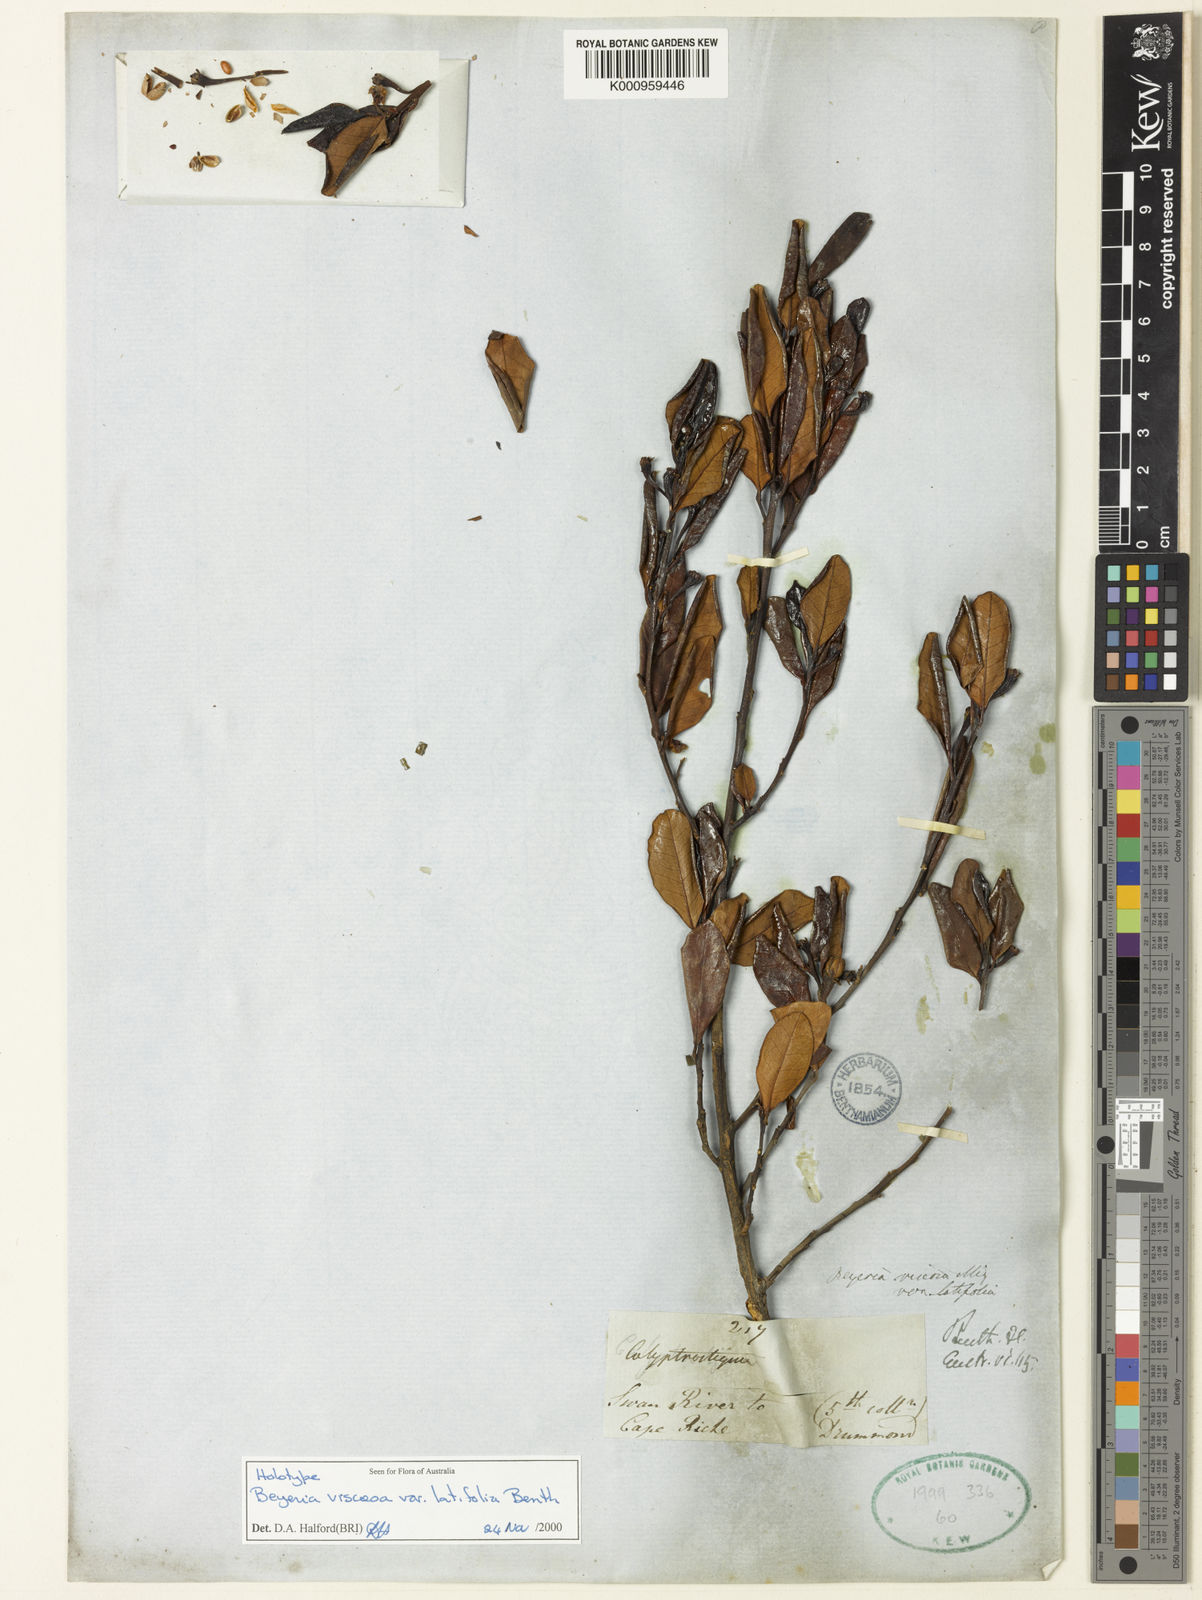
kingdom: Plantae
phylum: Tracheophyta
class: Magnoliopsida
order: Malpighiales
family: Euphorbiaceae
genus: Beyeria
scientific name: Beyeria viscosa
